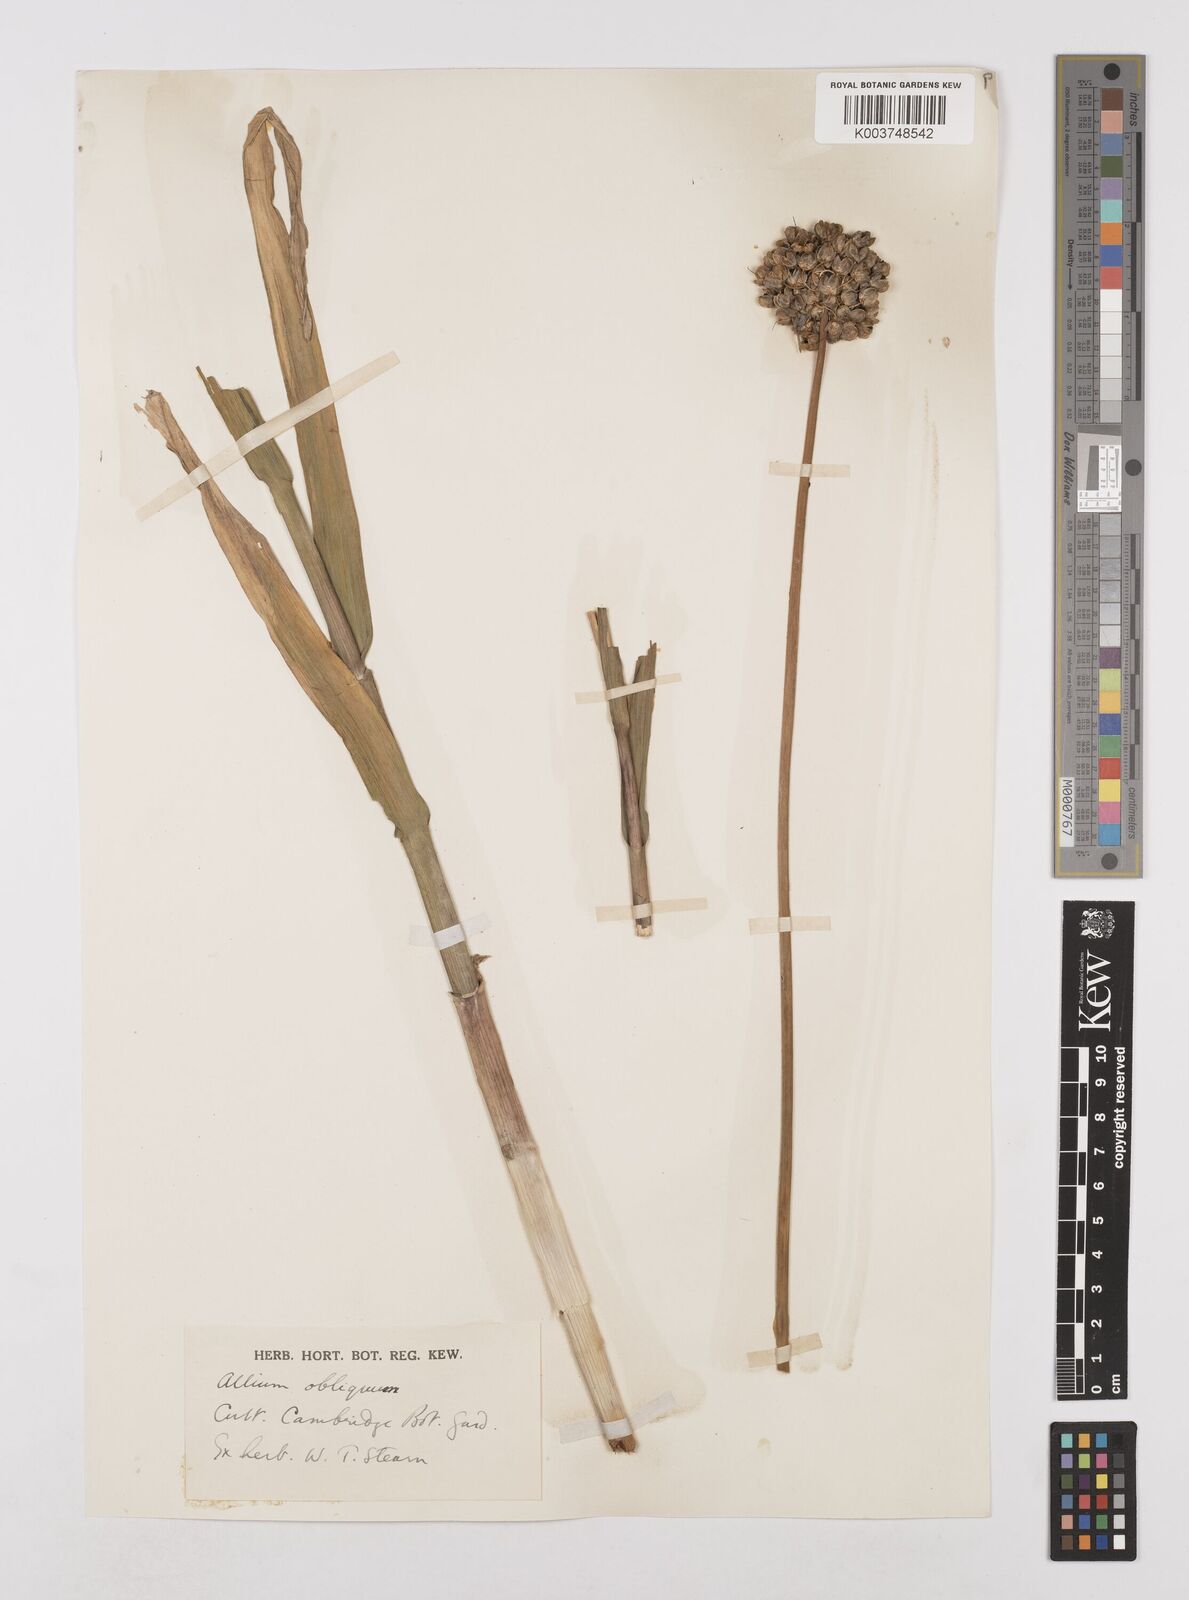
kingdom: Plantae
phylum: Tracheophyta
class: Liliopsida
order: Asparagales
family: Amaryllidaceae
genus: Allium
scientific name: Allium obliquum
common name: Oblique onion
